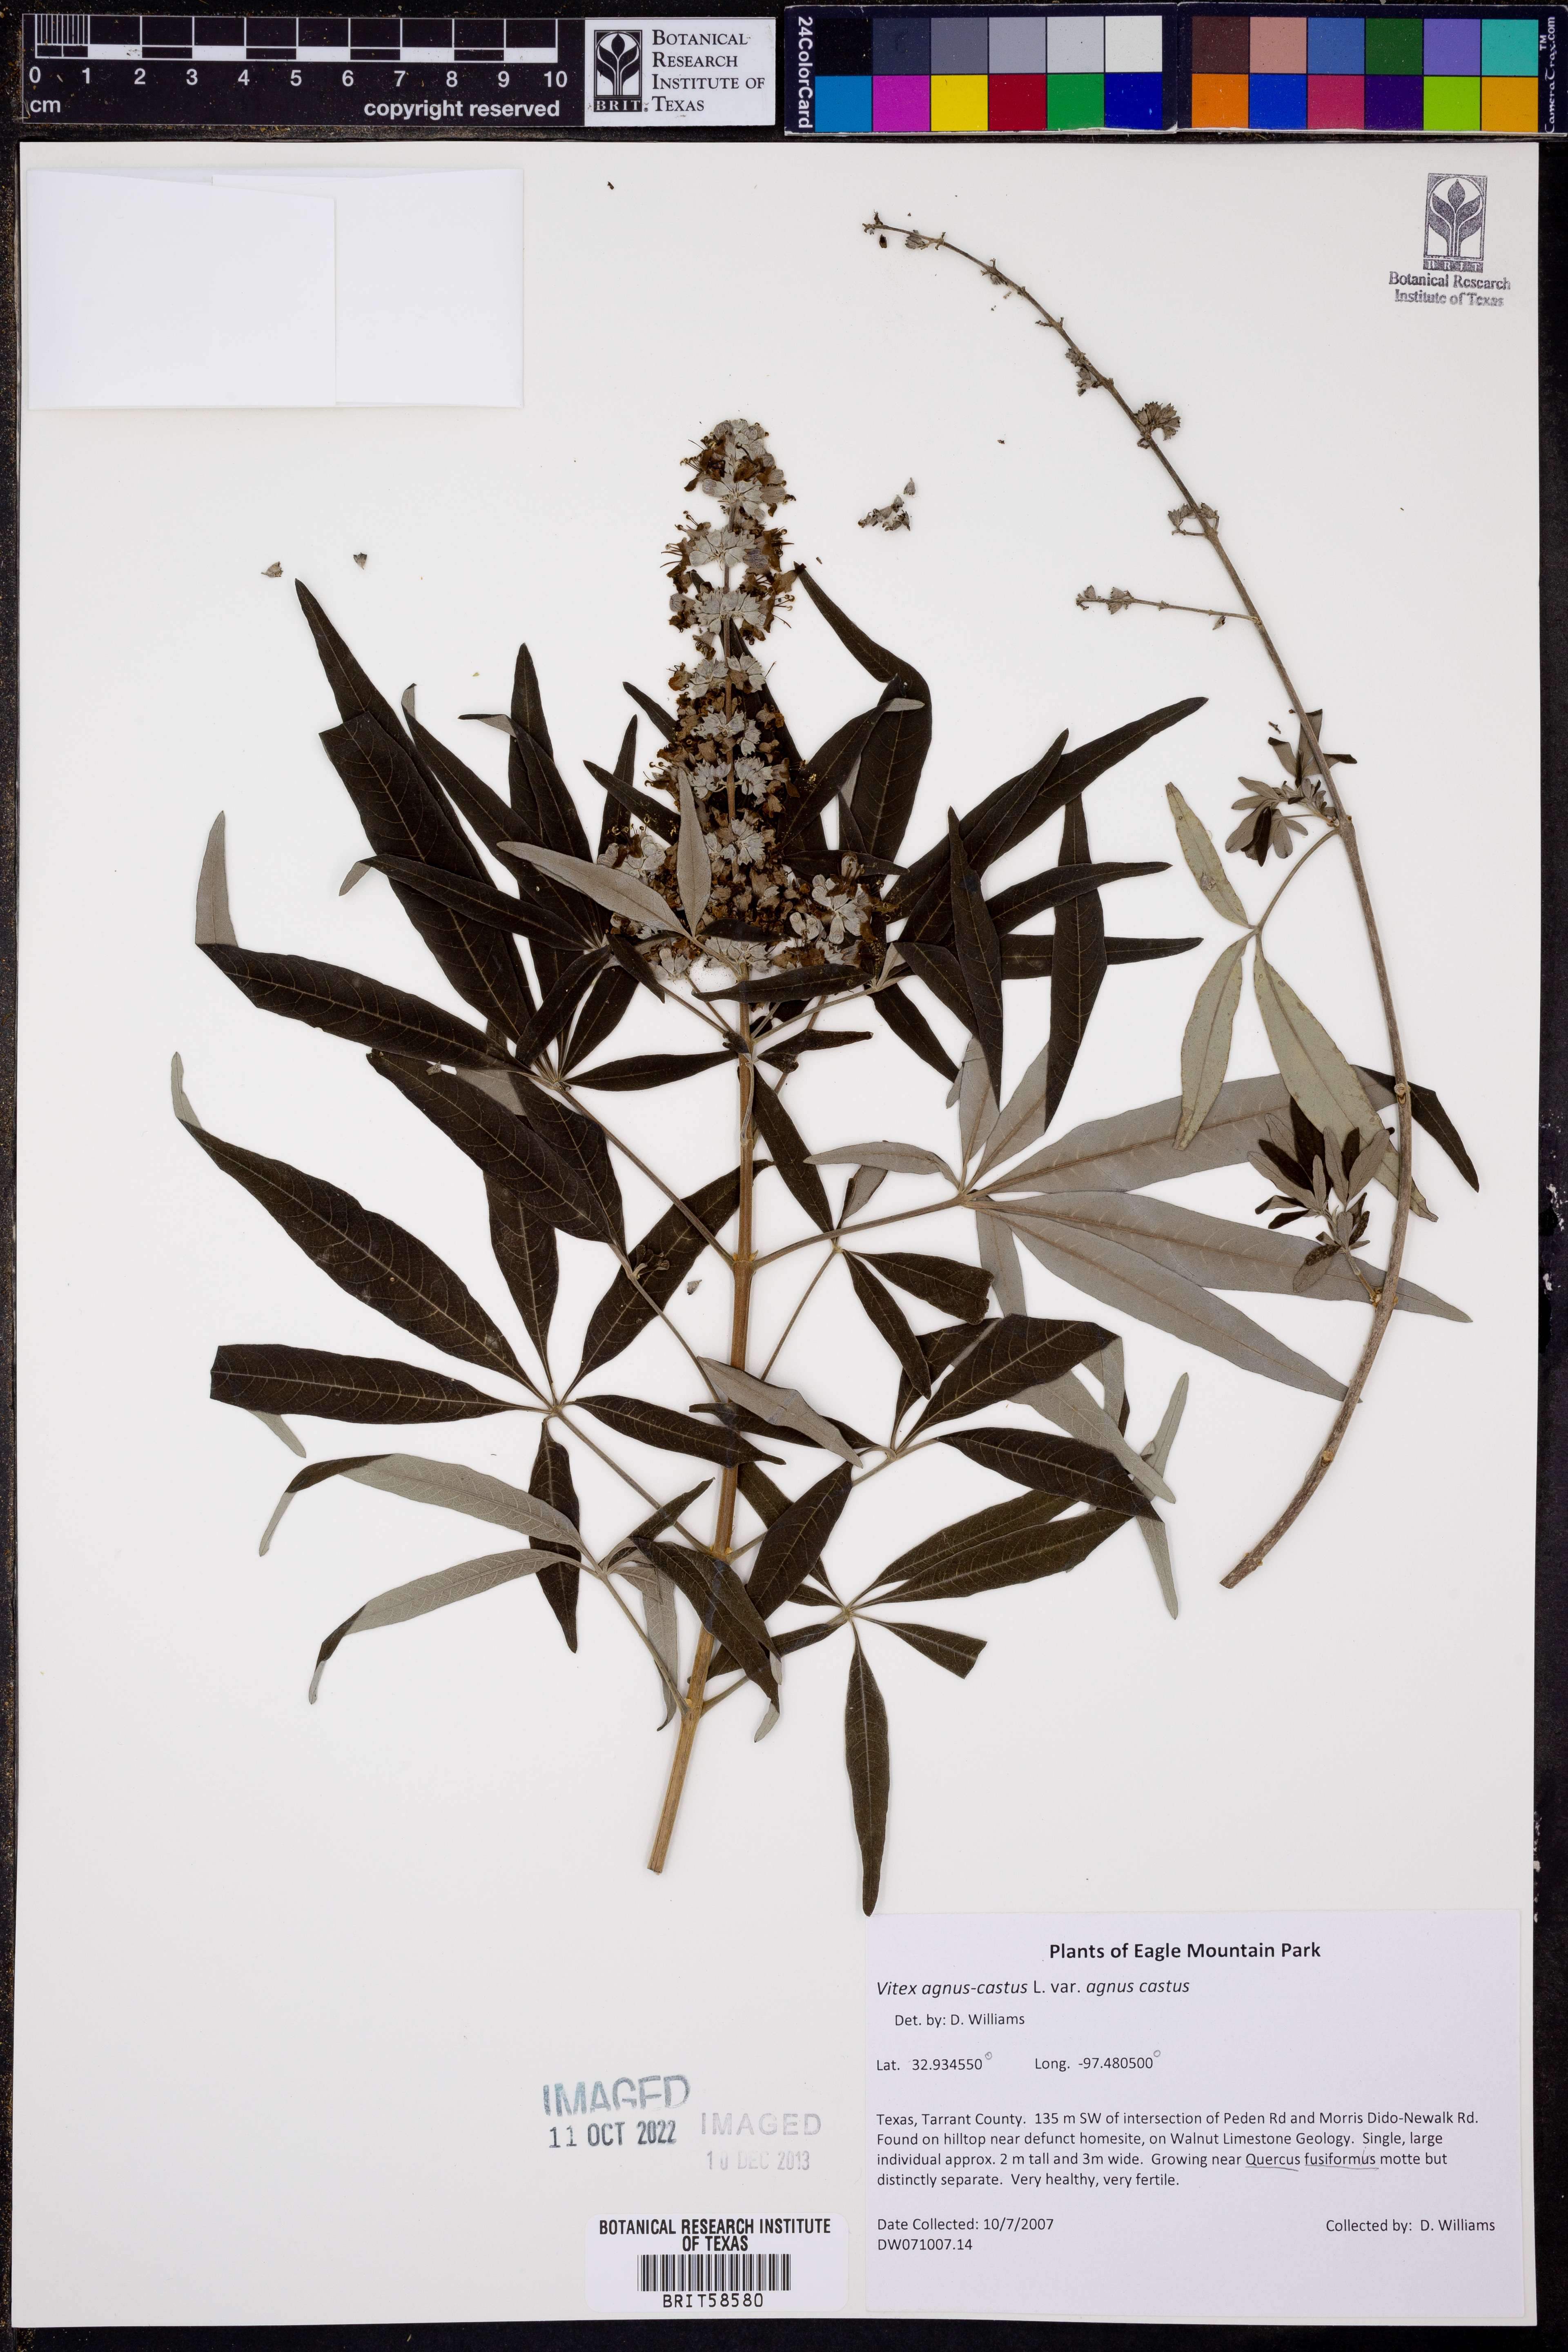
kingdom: Plantae
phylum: Tracheophyta
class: Magnoliopsida
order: Lamiales
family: Lamiaceae
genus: Vitex
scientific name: Vitex agnus-castus
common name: Chasteberry
